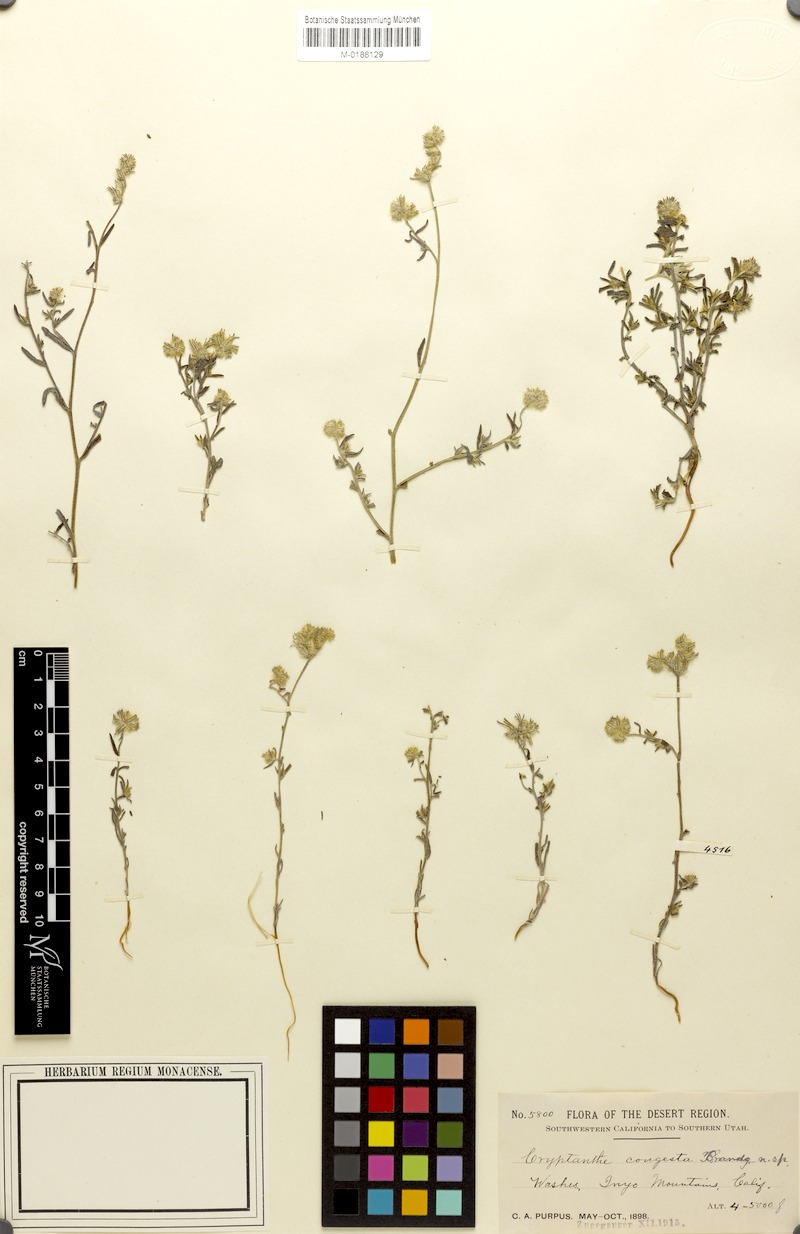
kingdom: Plantae
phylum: Tracheophyta
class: Magnoliopsida
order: Boraginales
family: Boraginaceae
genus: Cryptantha
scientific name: Cryptantha barbigera
